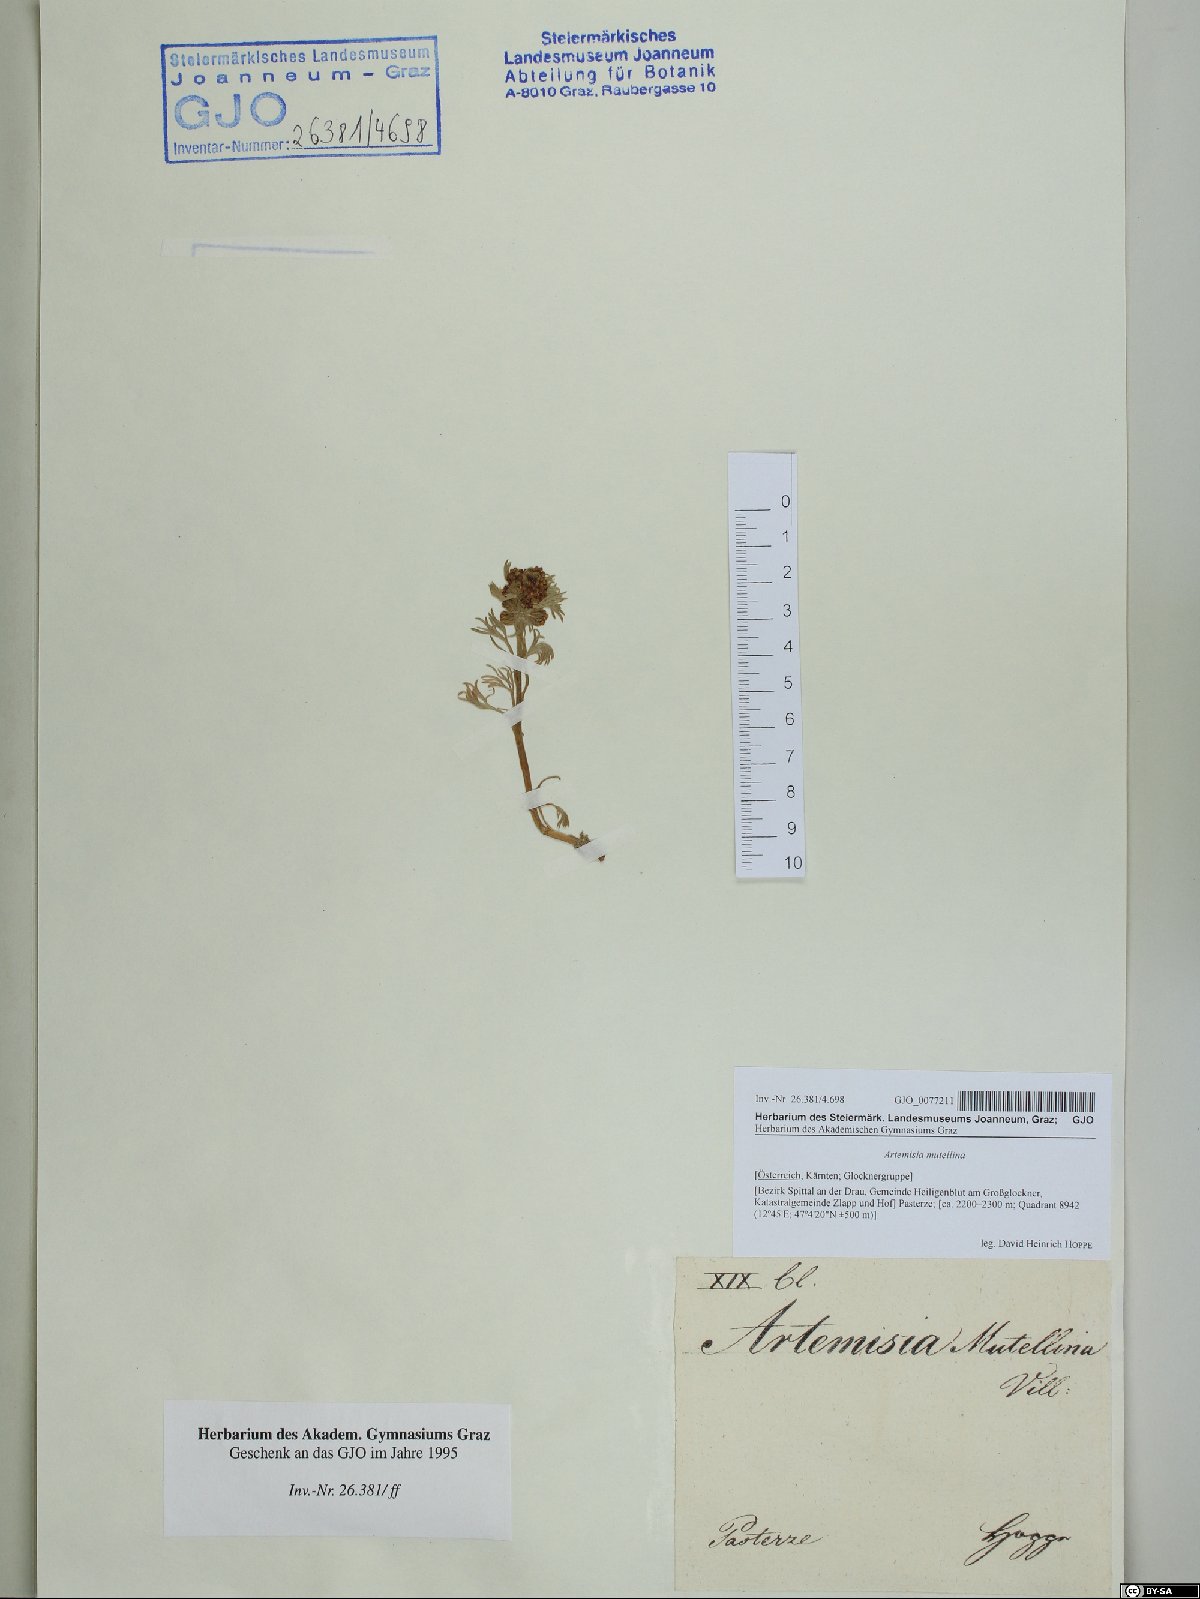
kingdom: Plantae
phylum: Tracheophyta
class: Magnoliopsida
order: Asterales
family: Asteraceae
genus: Artemisia
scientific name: Artemisia mutellina
